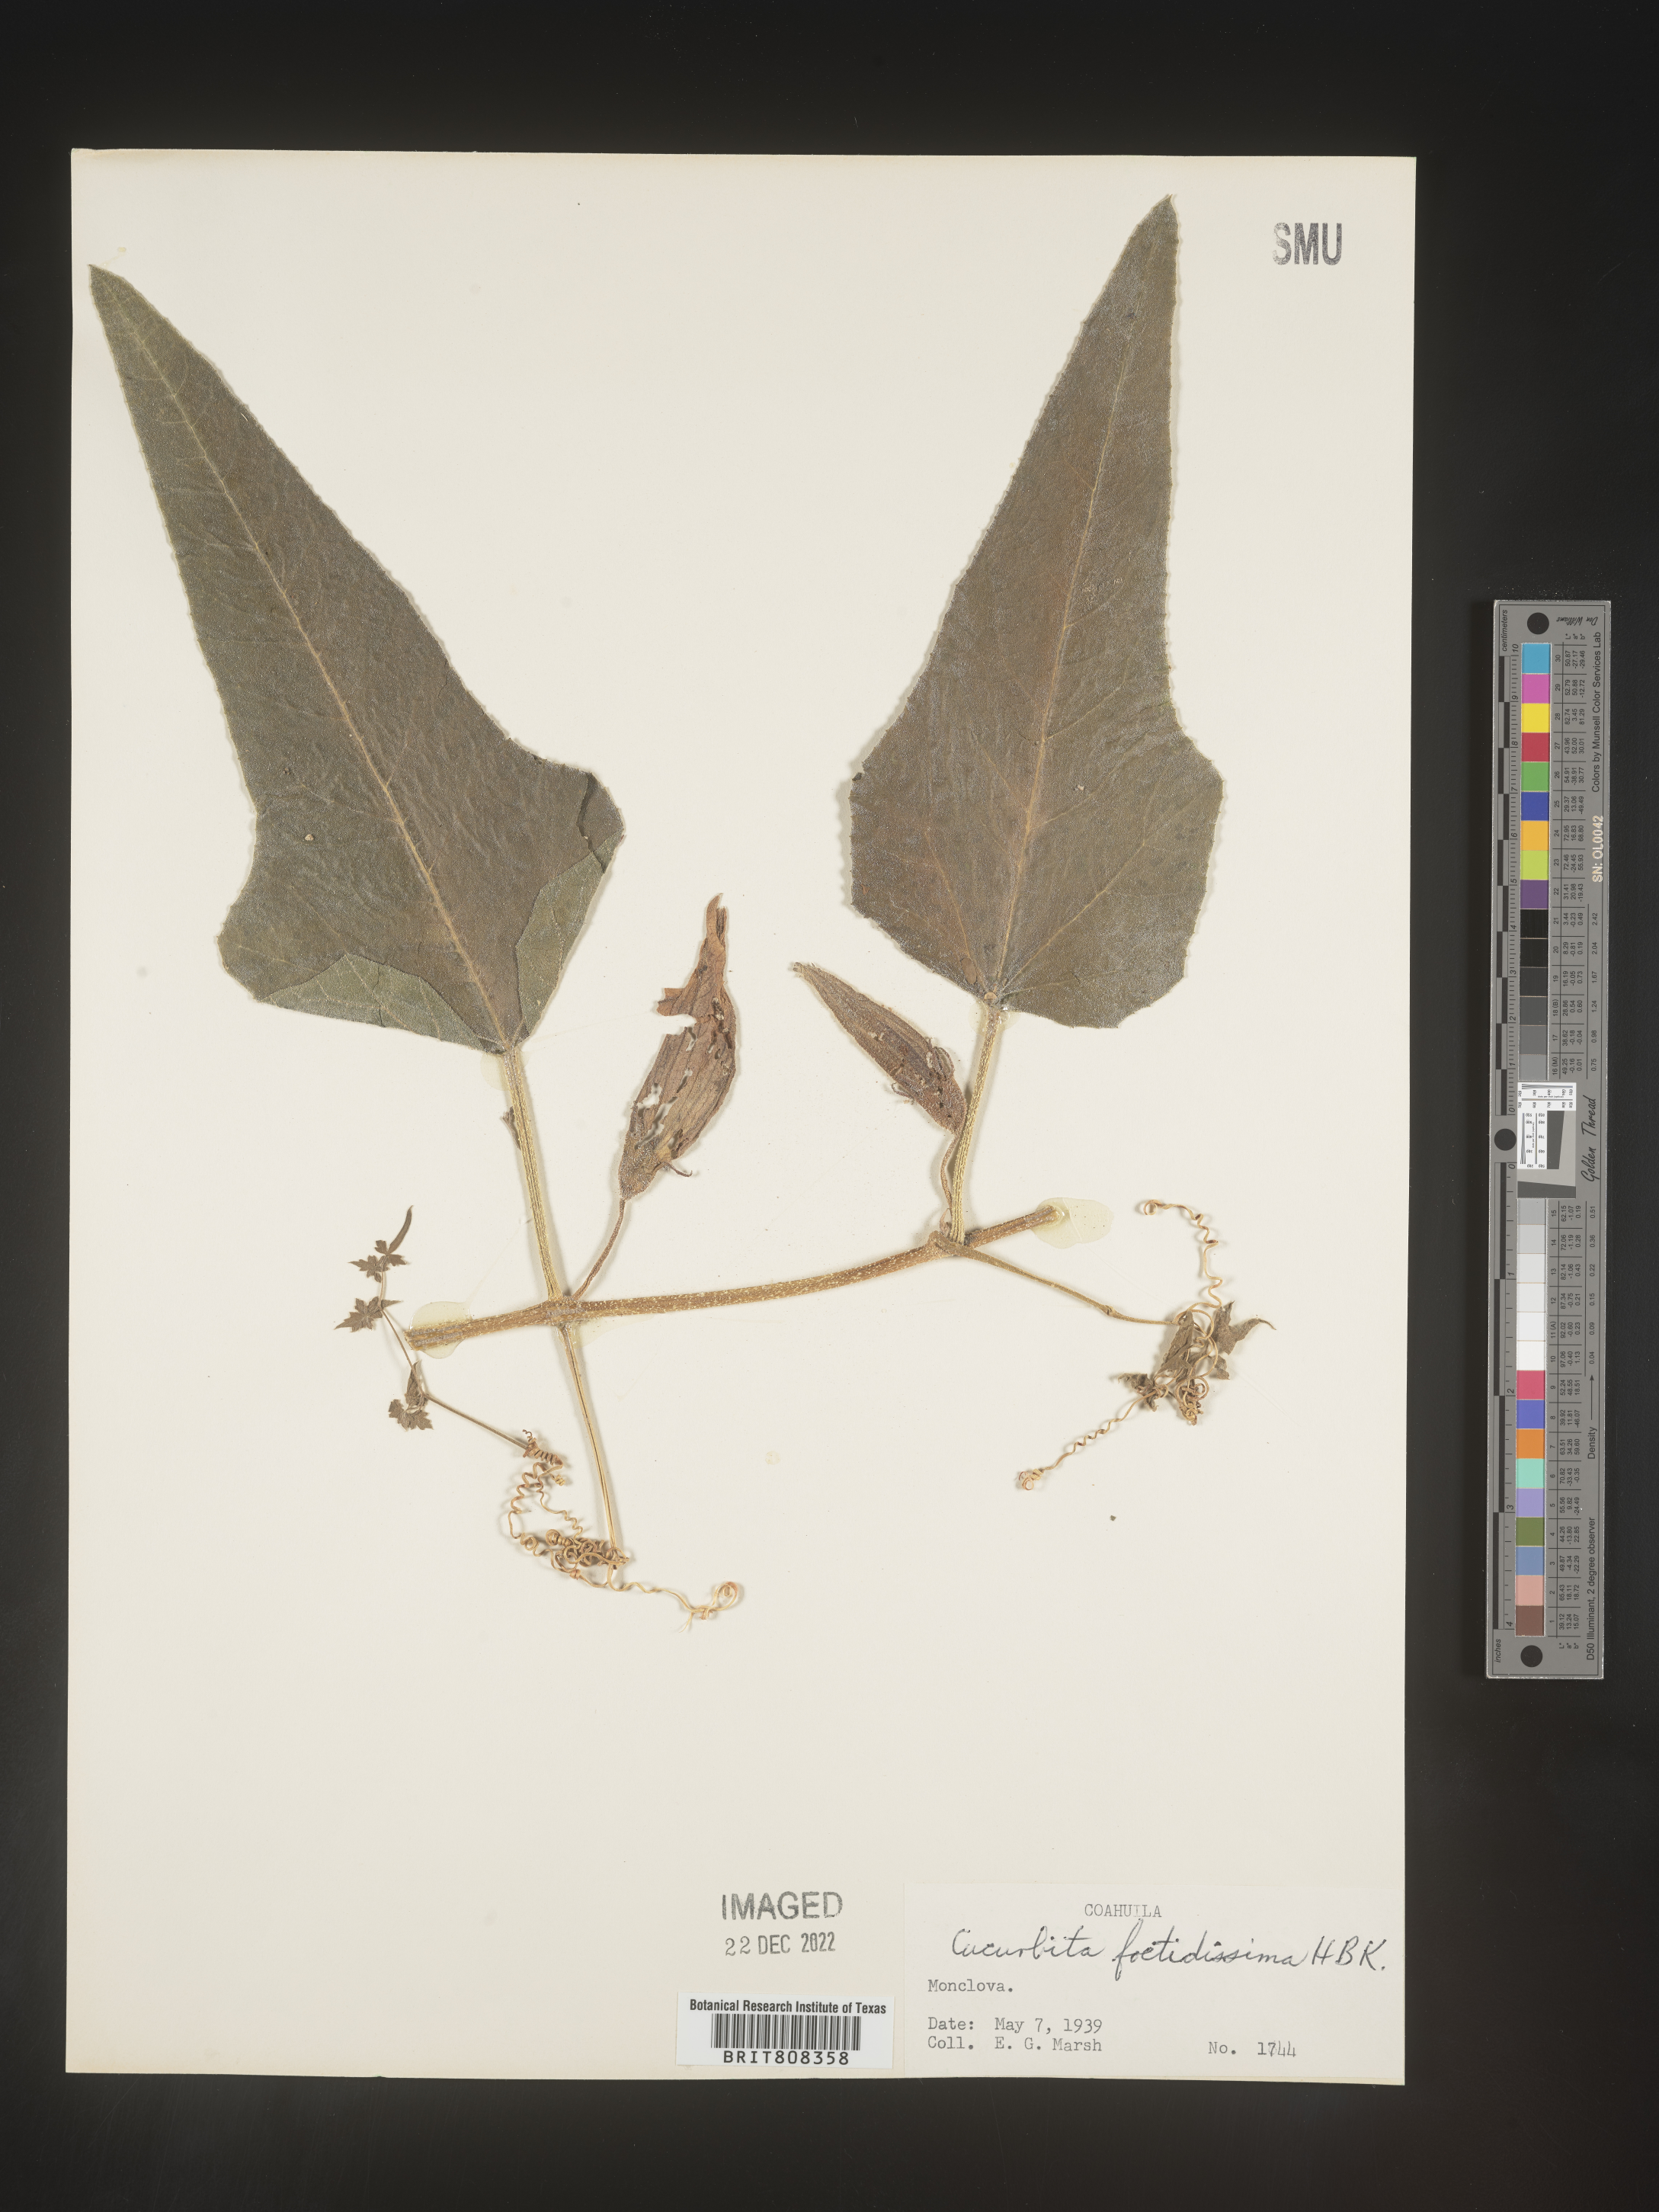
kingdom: Plantae
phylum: Tracheophyta
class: Magnoliopsida
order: Cucurbitales
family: Cucurbitaceae
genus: Cucurbita
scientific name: Cucurbita
